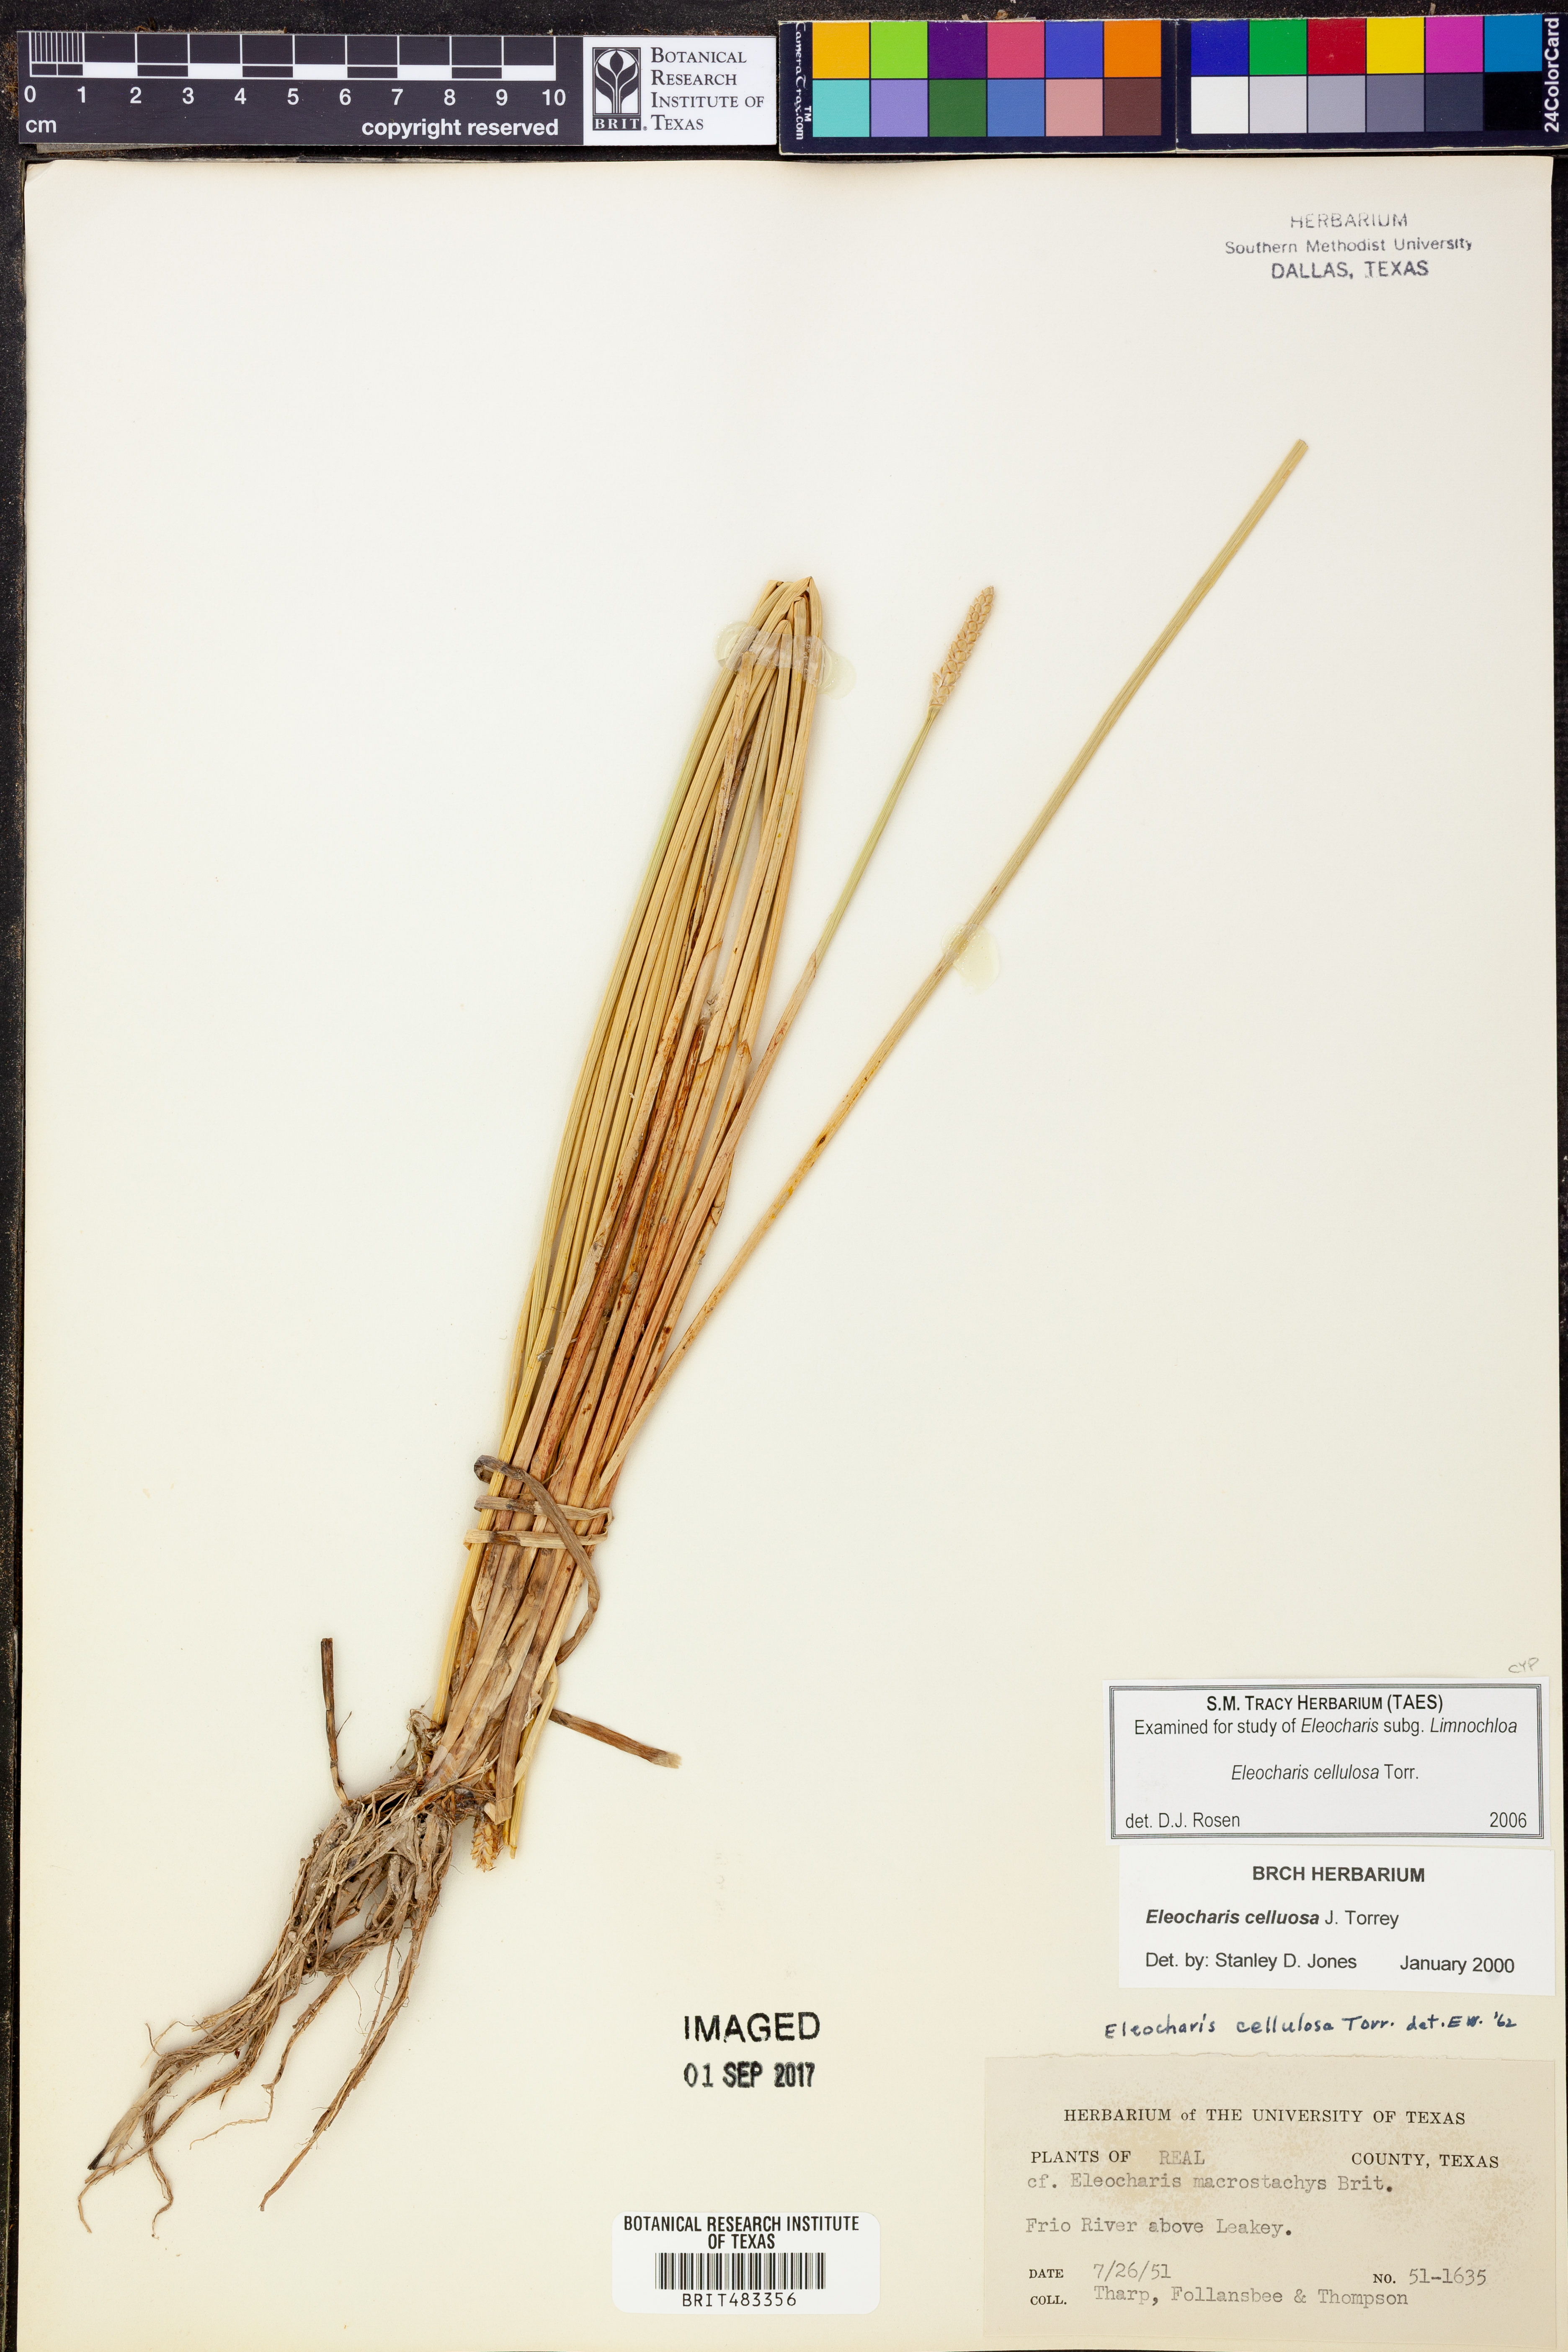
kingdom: Plantae
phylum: Tracheophyta
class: Liliopsida
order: Poales
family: Cyperaceae
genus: Eleocharis
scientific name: Eleocharis cellulosa
